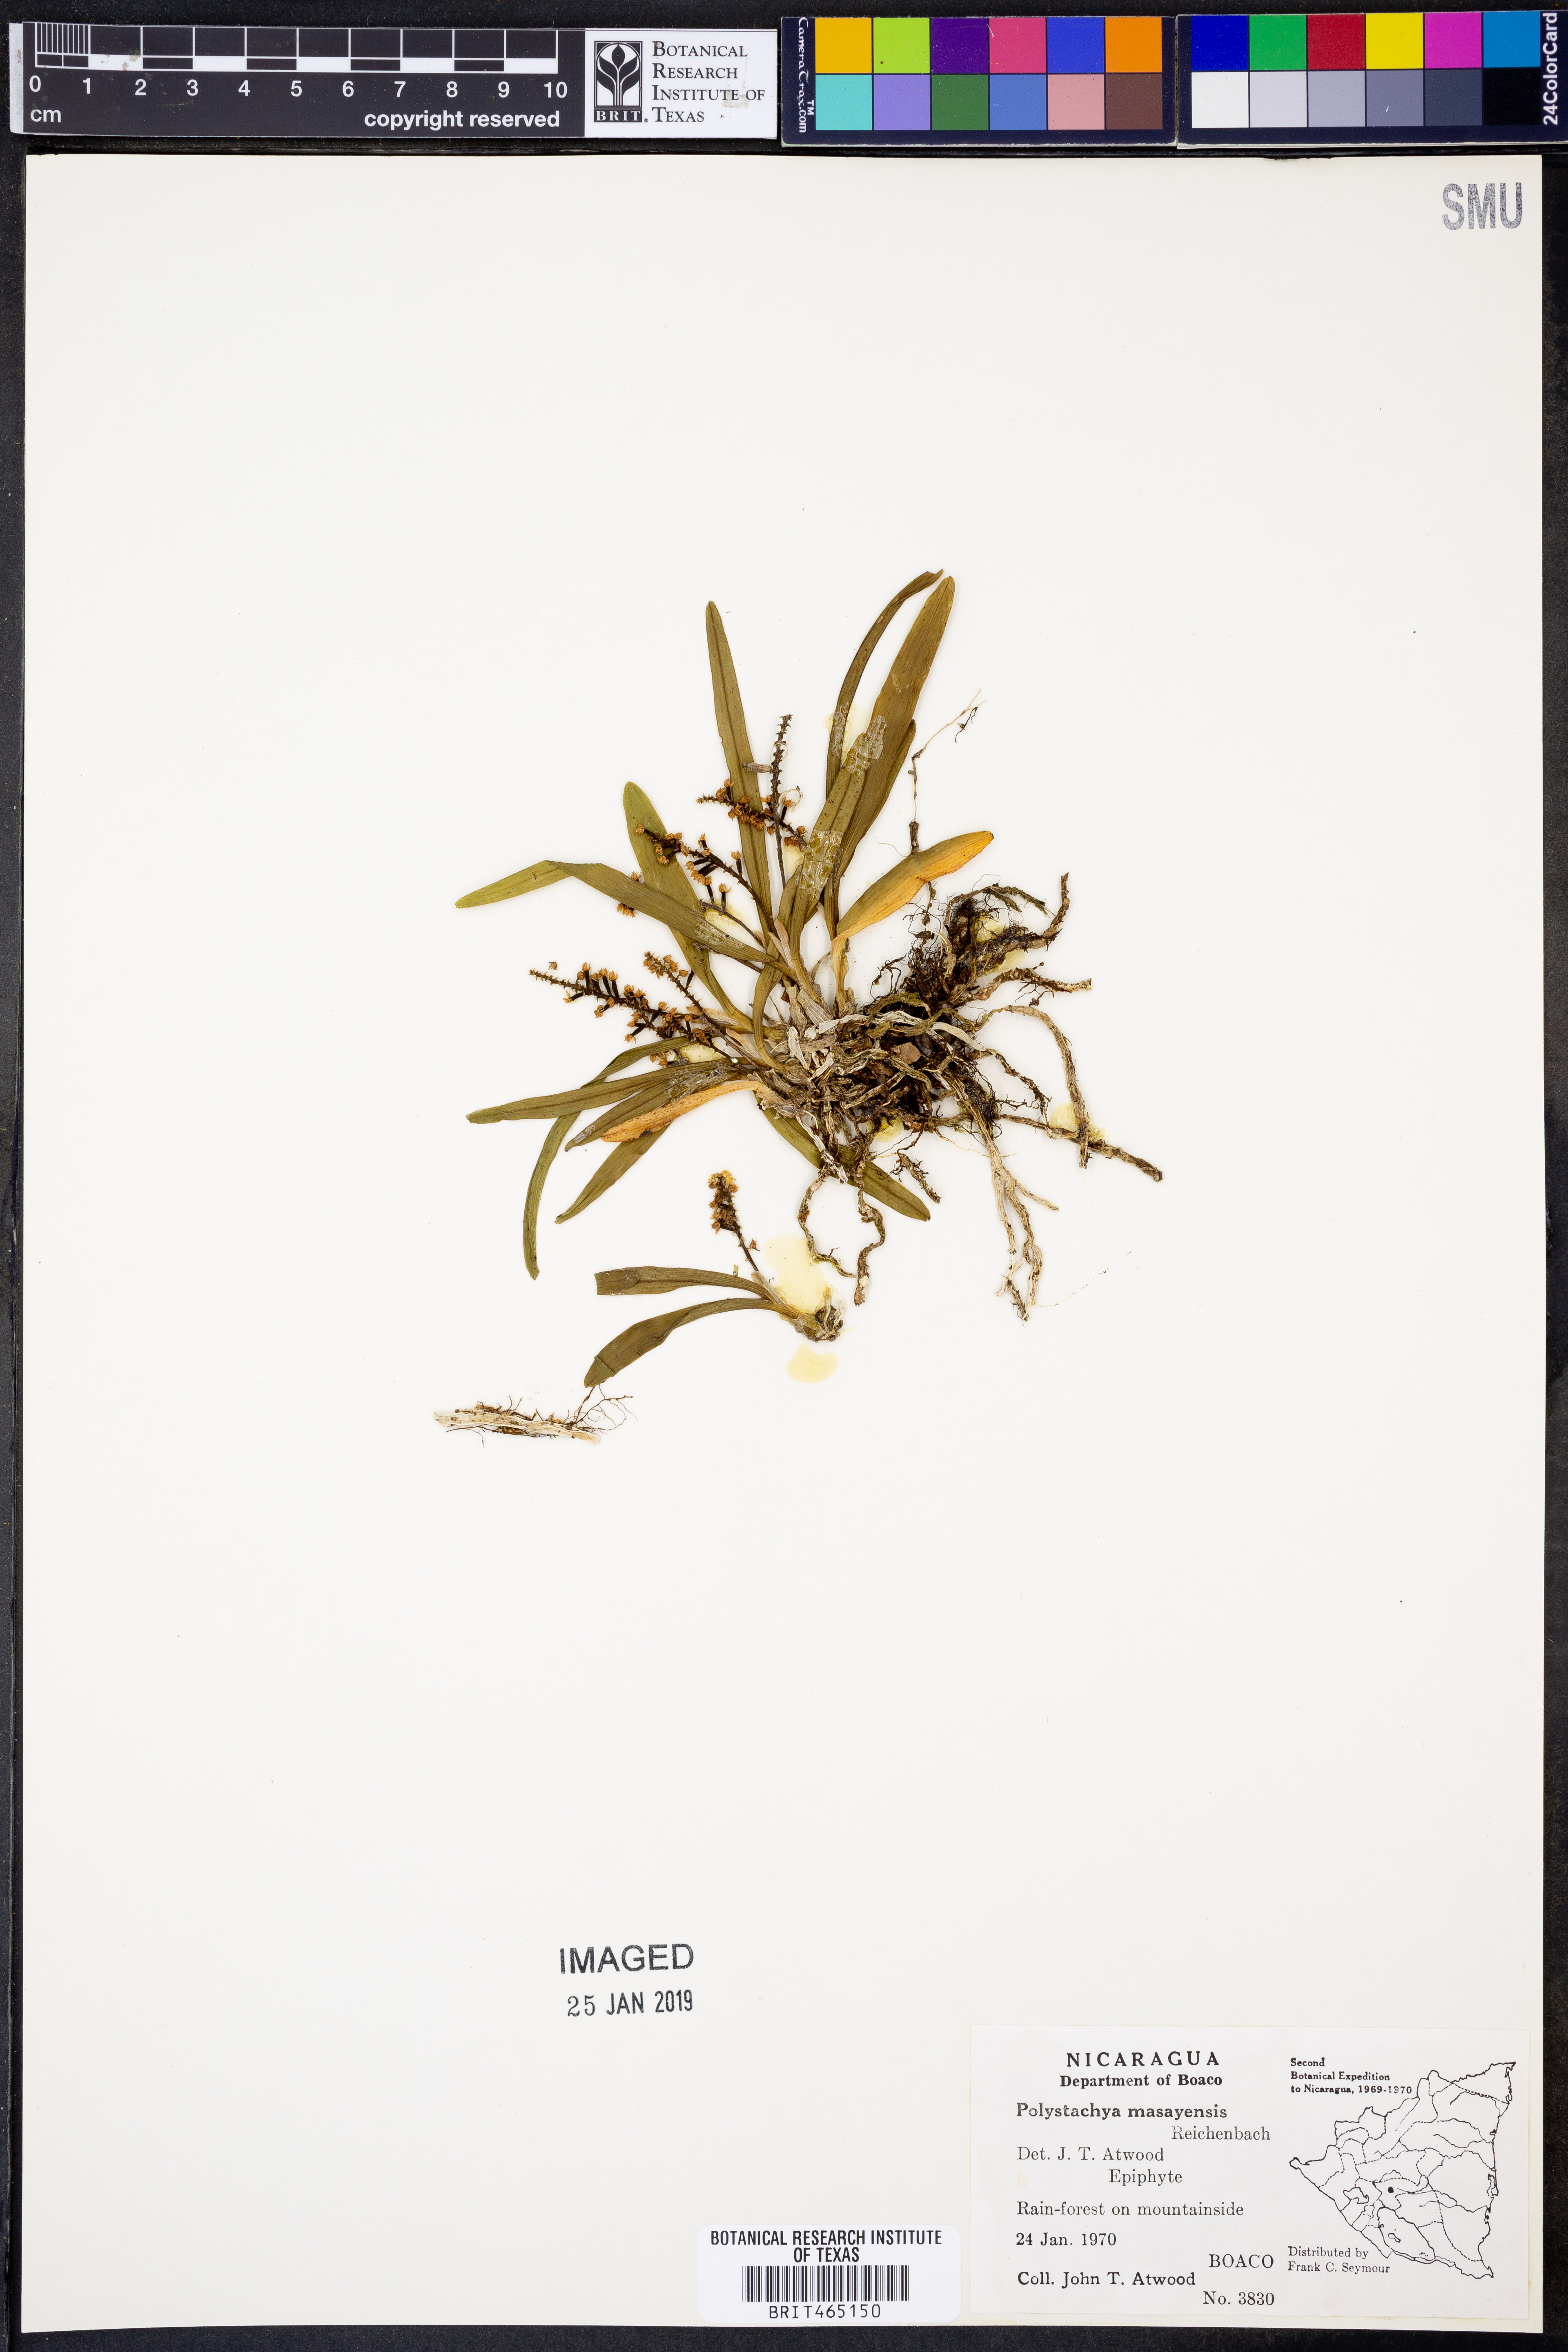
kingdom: Plantae
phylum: Tracheophyta
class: Liliopsida
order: Asparagales
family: Orchidaceae
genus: Polystachya
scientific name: Polystachya masayensis
